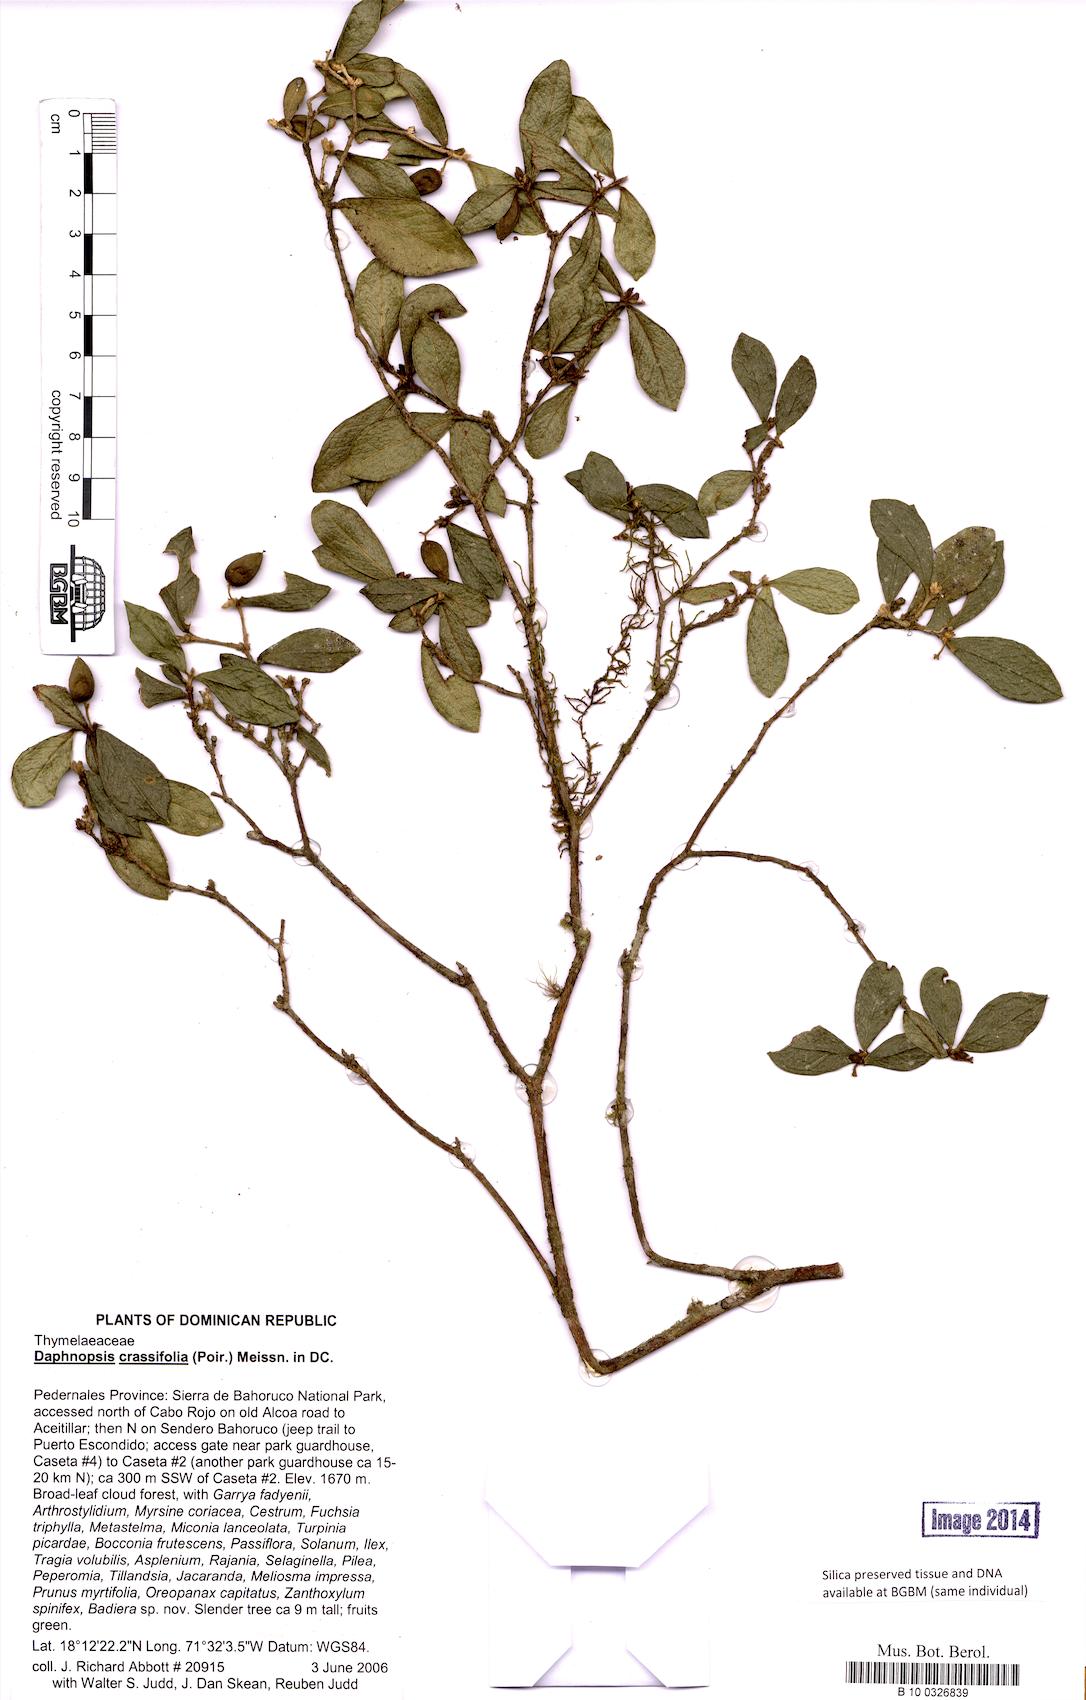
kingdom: Plantae
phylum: Tracheophyta
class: Magnoliopsida
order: Malvales
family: Thymelaeaceae
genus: Daphnopsis
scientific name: Daphnopsis crassifolia
